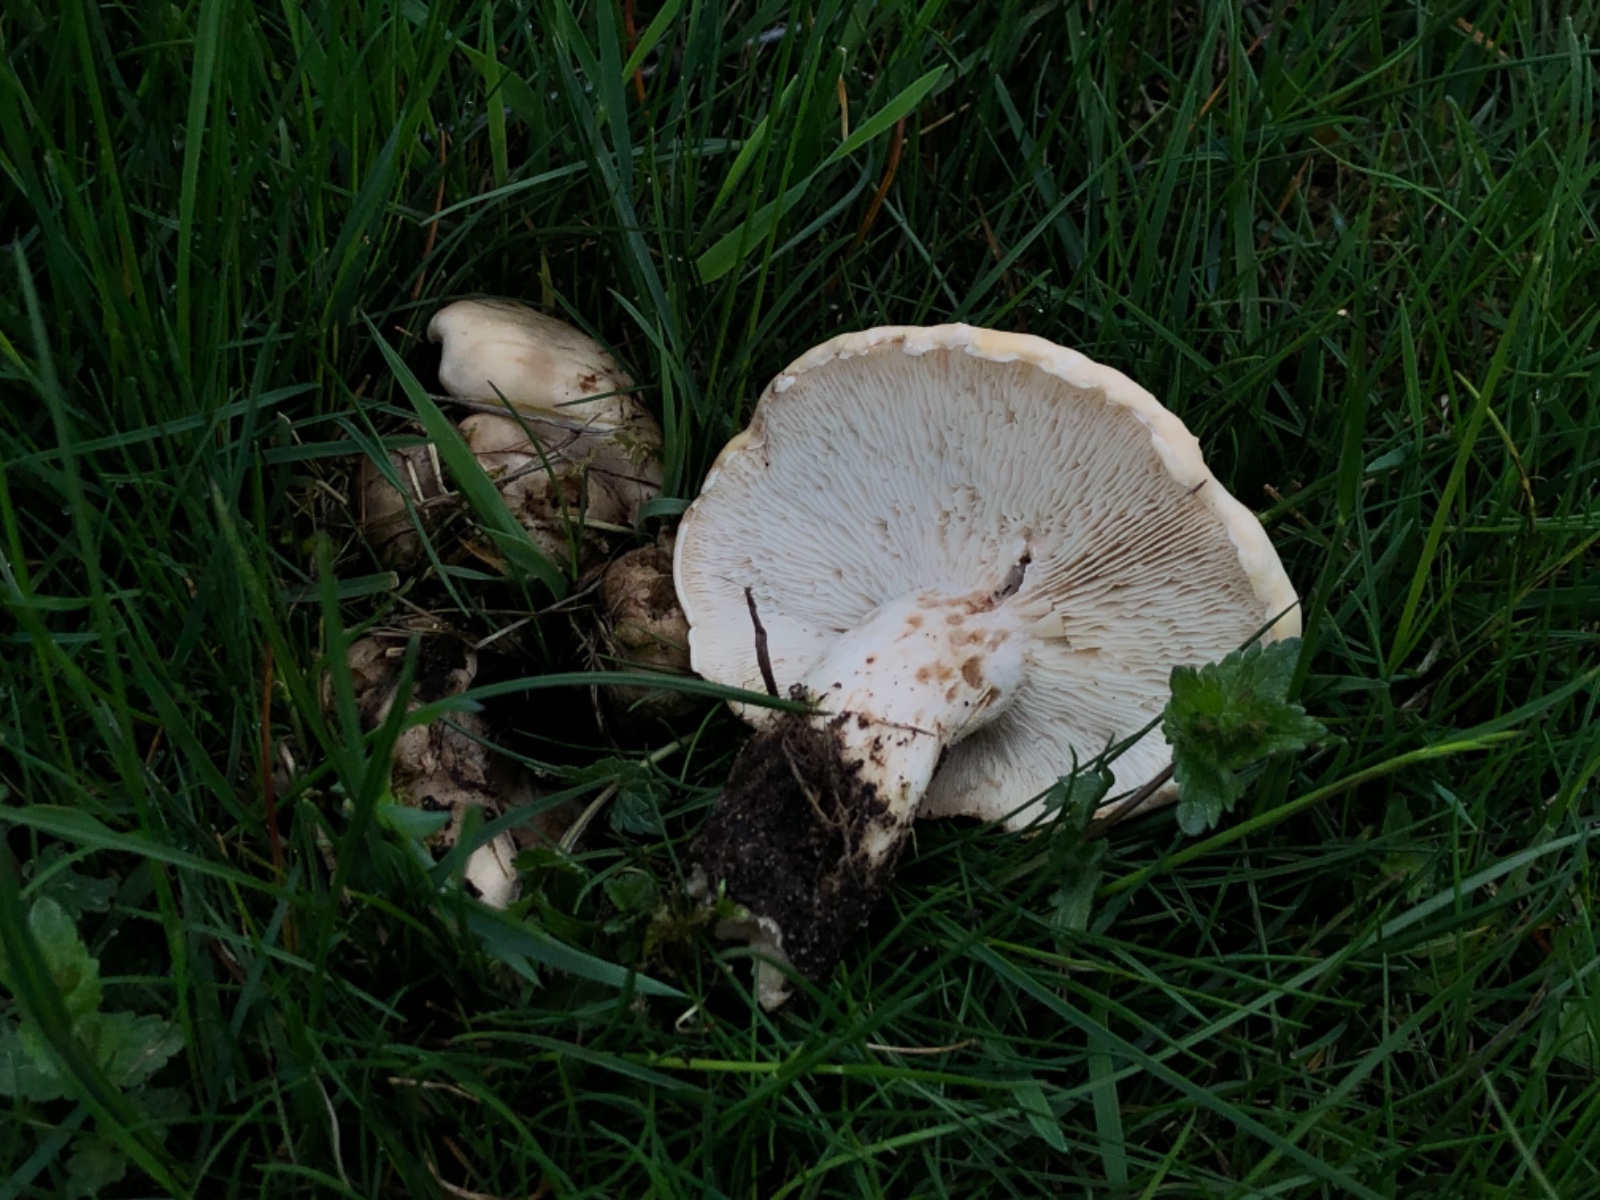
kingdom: Fungi
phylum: Basidiomycota
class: Agaricomycetes
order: Agaricales
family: Lyophyllaceae
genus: Calocybe
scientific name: Calocybe gambosa
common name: vårmusseron
